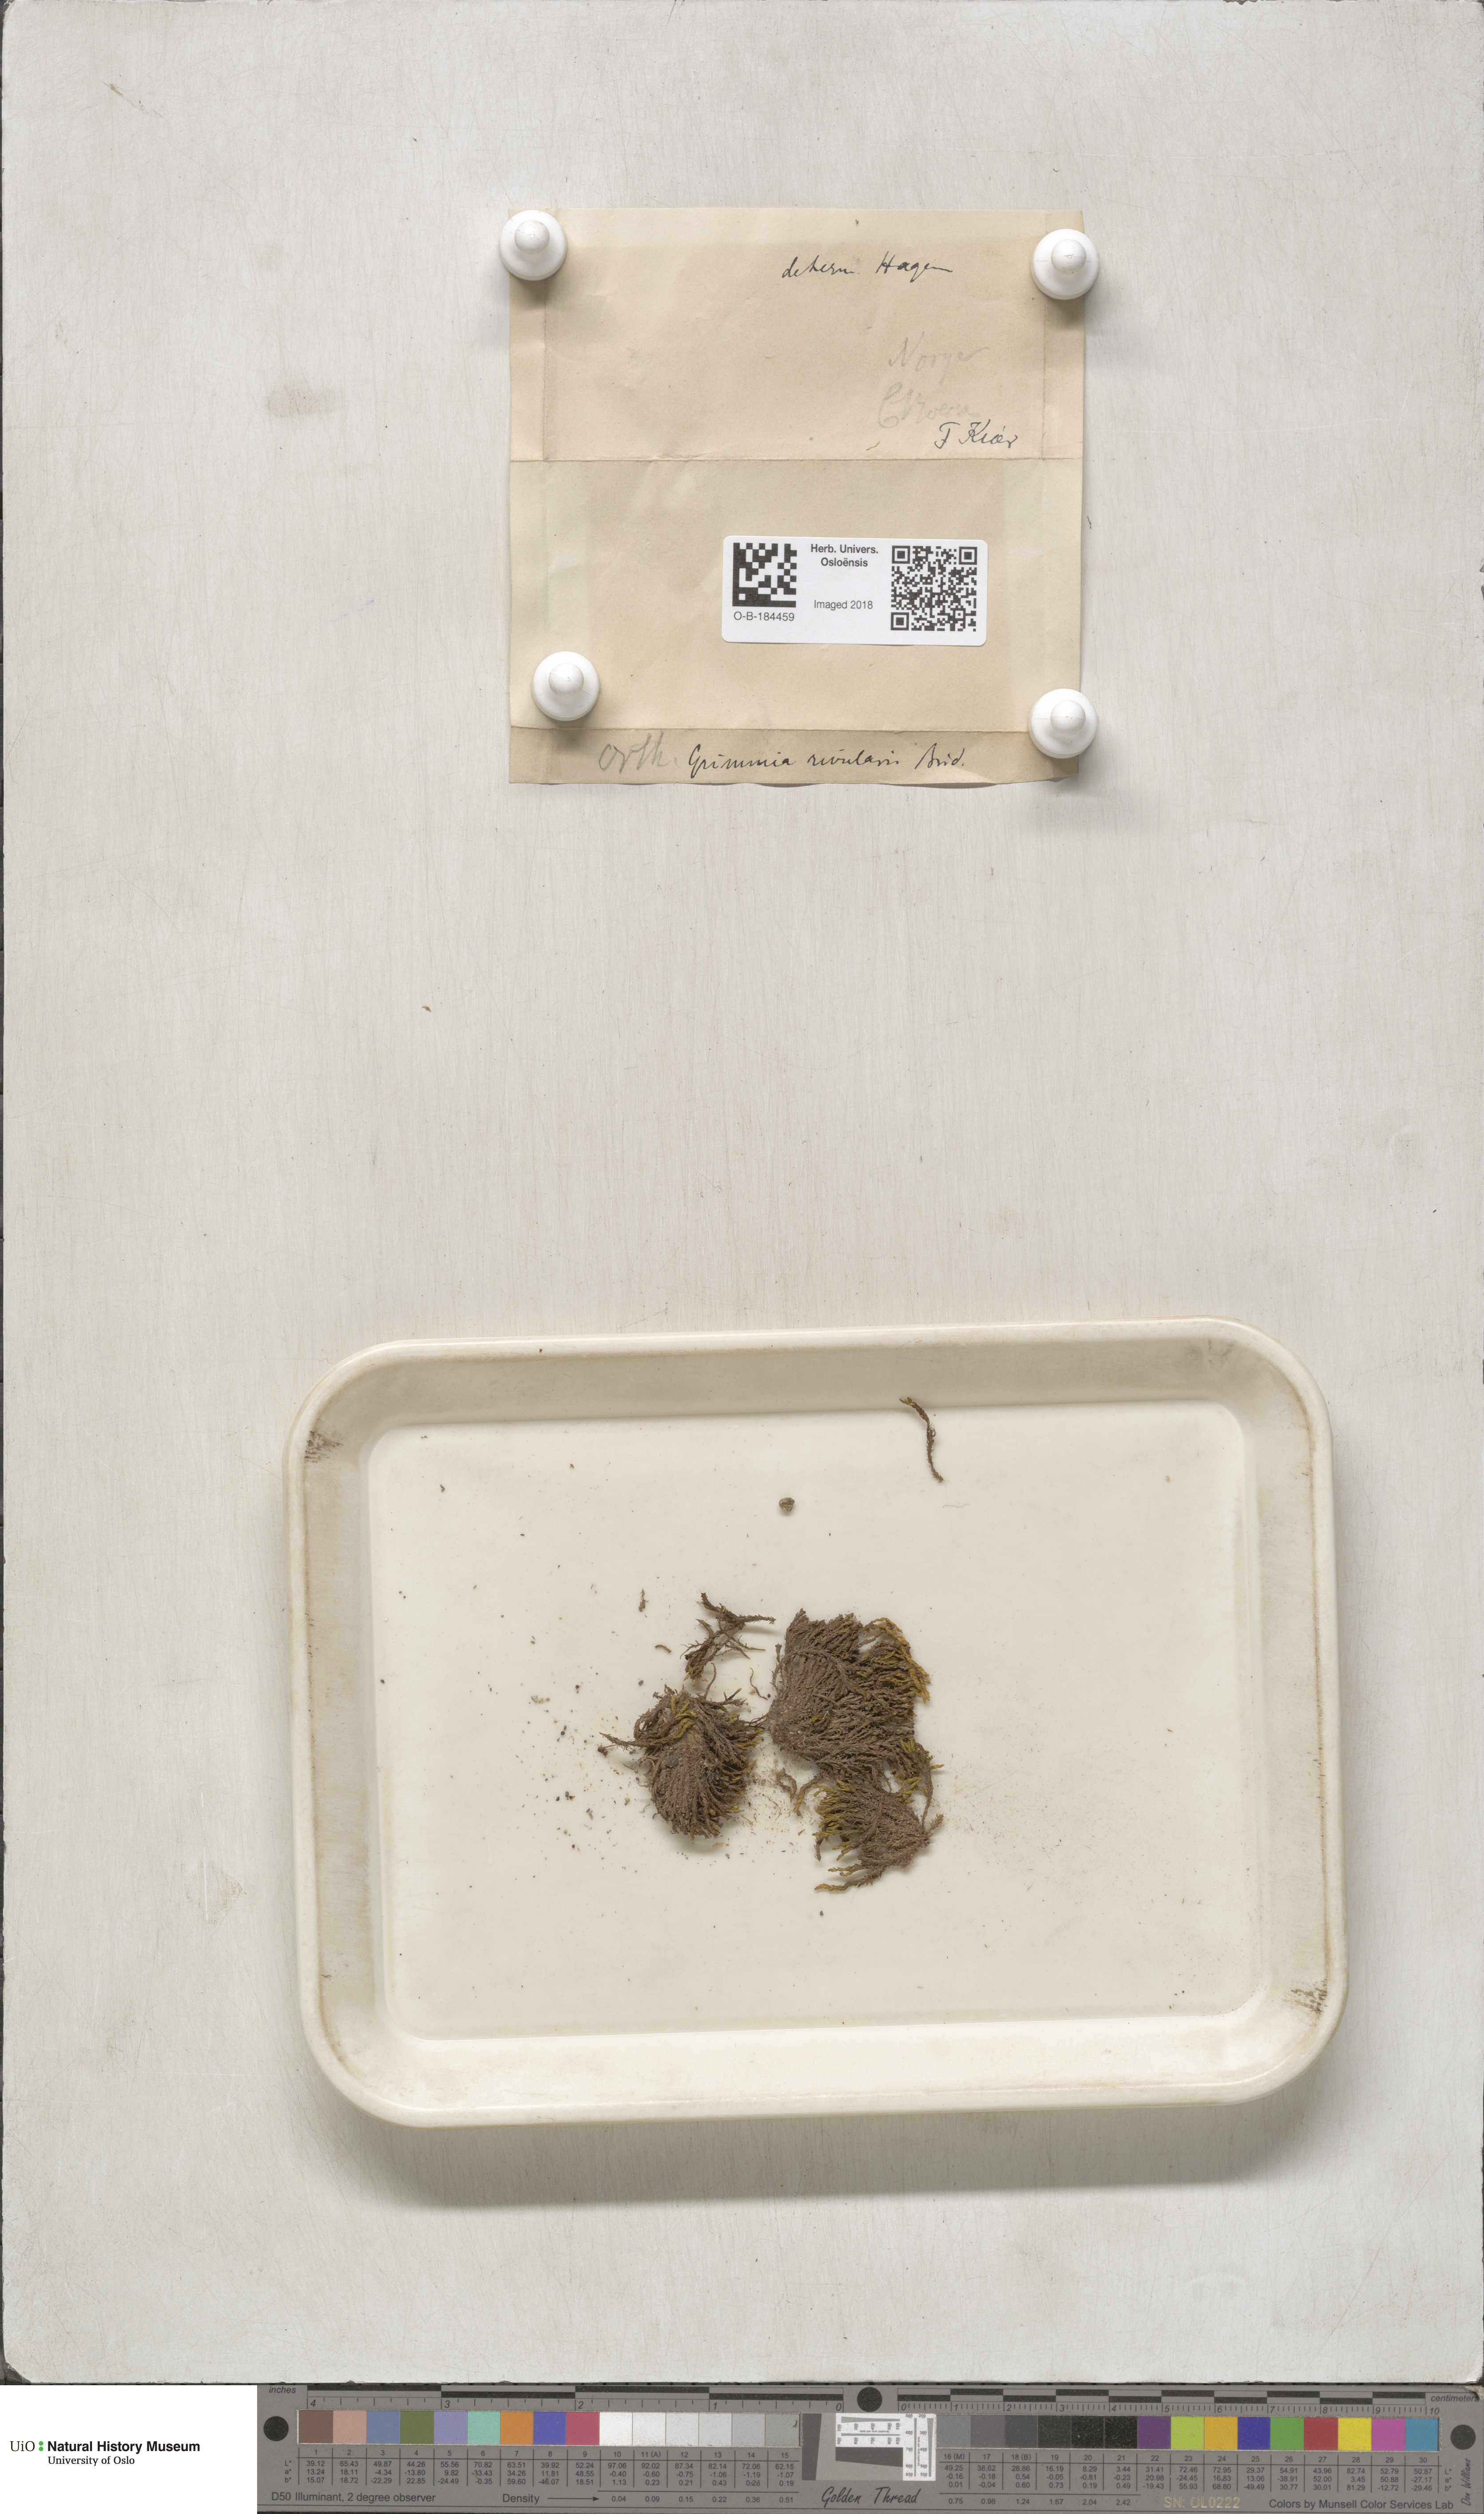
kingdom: Plantae
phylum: Bryophyta
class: Bryopsida
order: Grimmiales
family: Grimmiaceae
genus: Schistidium
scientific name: Schistidium rivulare
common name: River bloom moss
